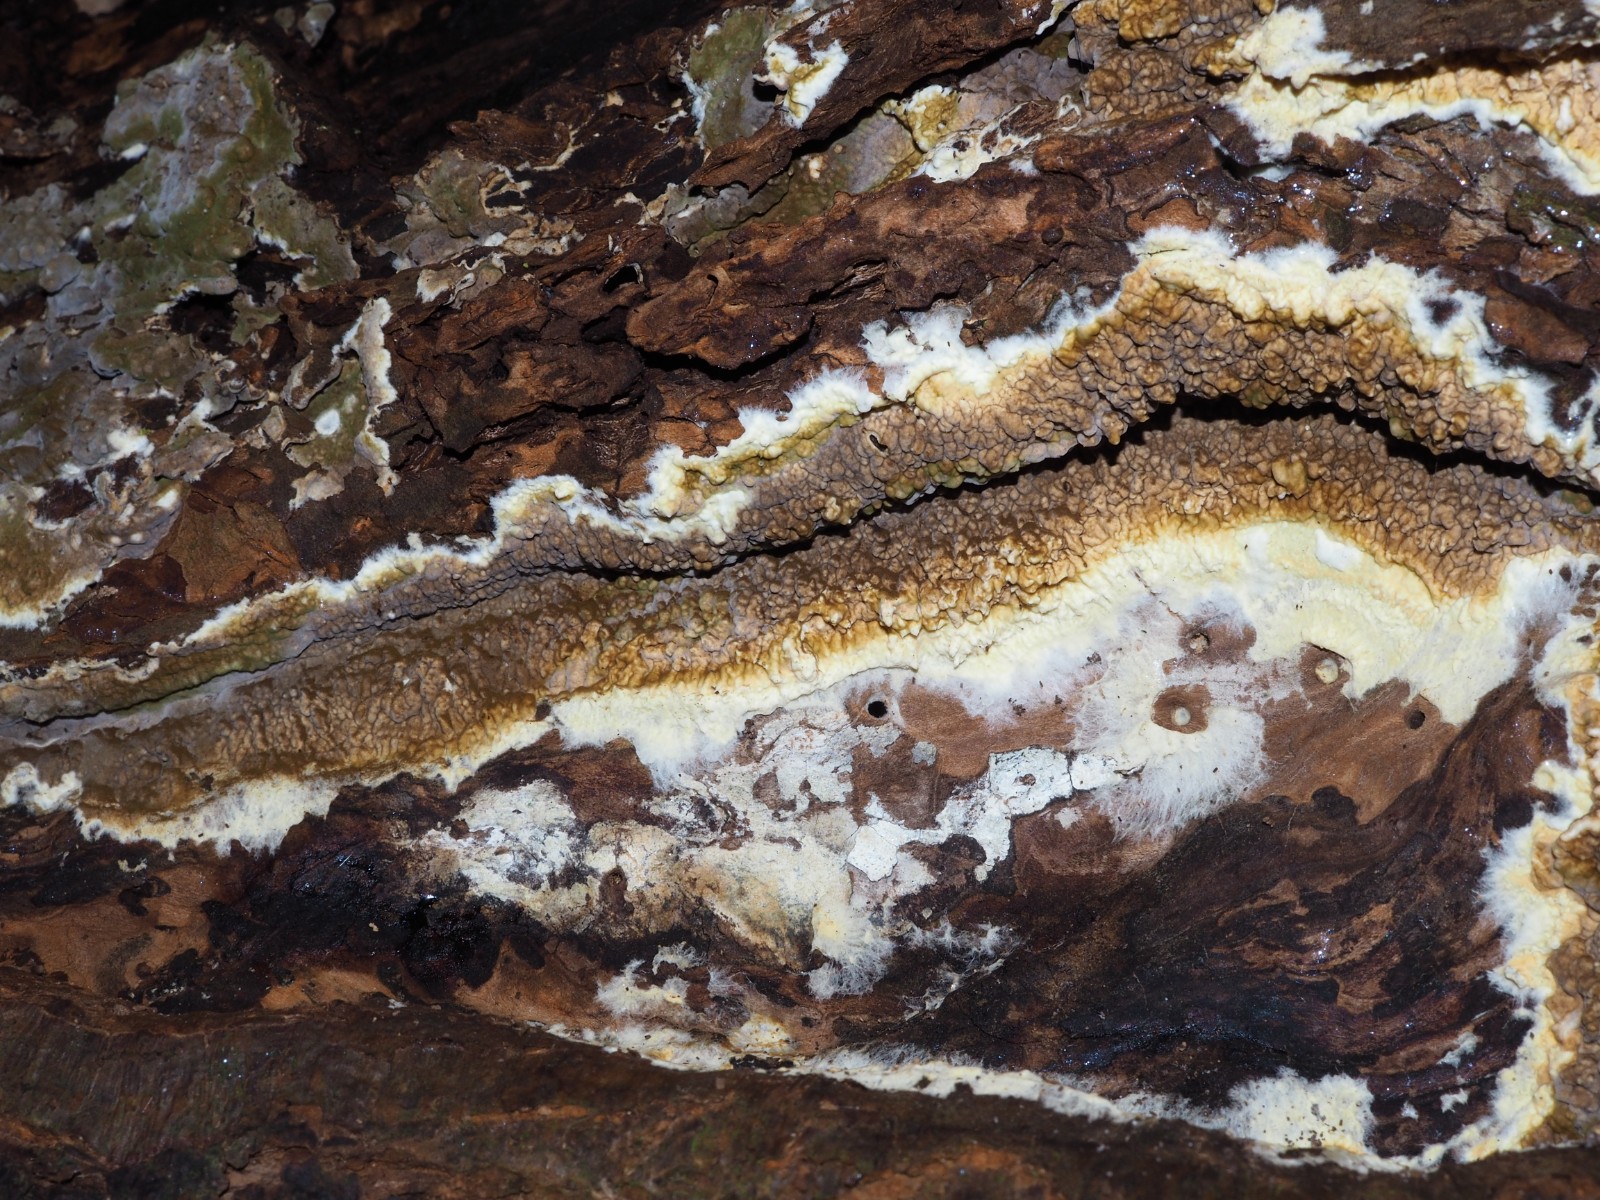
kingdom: Fungi
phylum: Basidiomycota
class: Agaricomycetes
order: Boletales
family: Coniophoraceae
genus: Coniophora
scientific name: Coniophora puteana
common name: gul tømmersvamp
